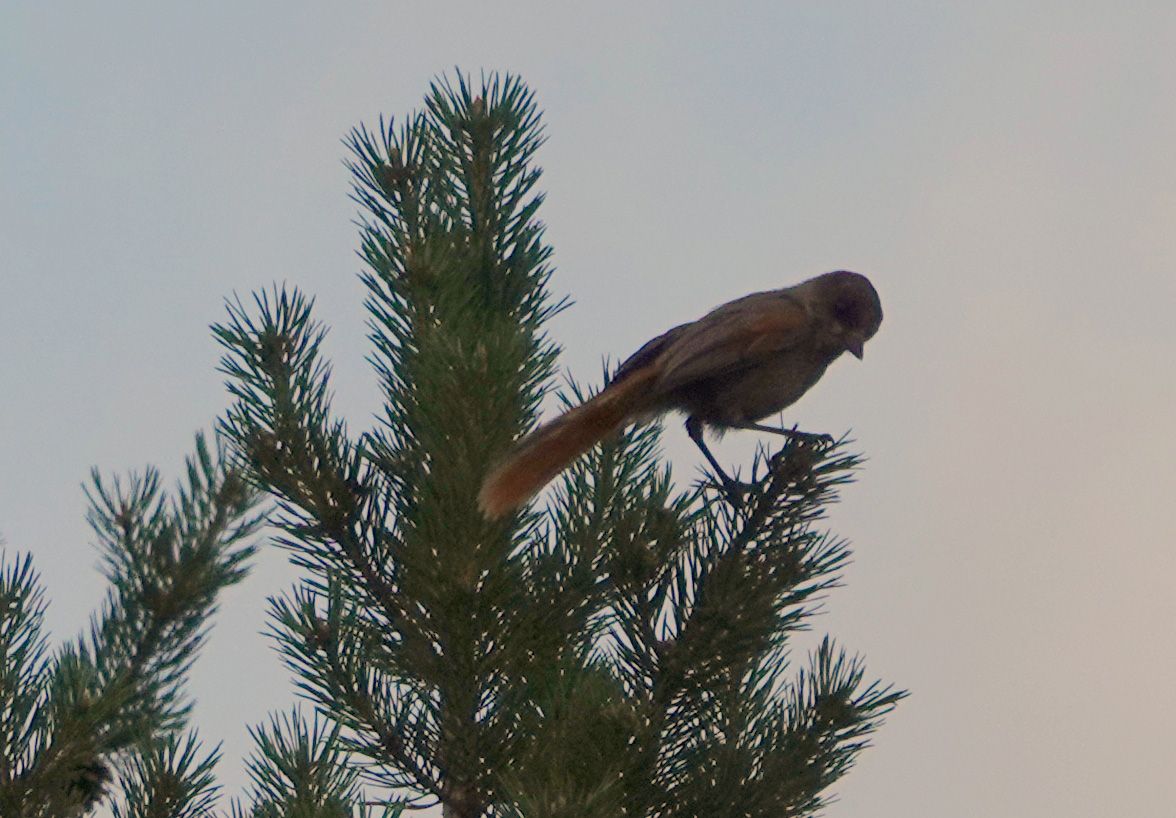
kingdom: Animalia
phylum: Chordata
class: Aves
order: Passeriformes
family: Corvidae
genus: Perisoreus
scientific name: Perisoreus infaustus
